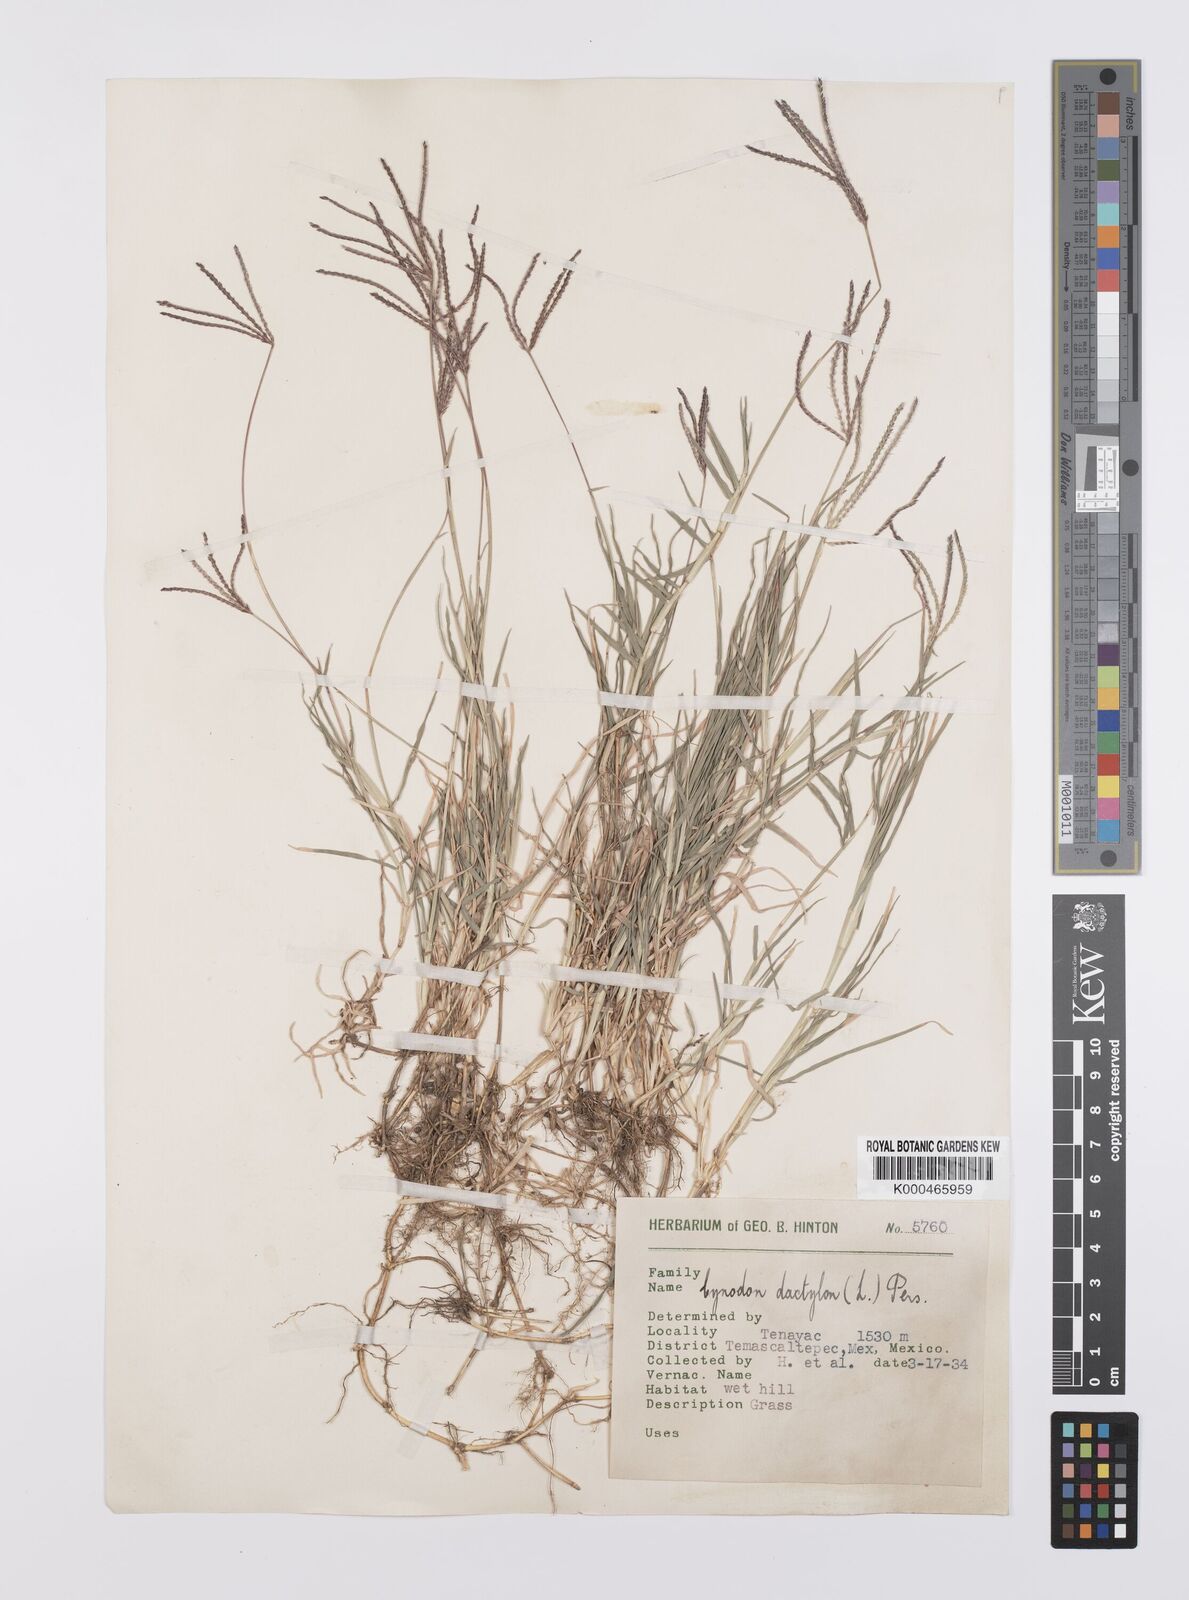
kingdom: Plantae
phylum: Tracheophyta
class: Liliopsida
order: Poales
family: Poaceae
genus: Cynodon
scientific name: Cynodon dactylon
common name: Bermuda grass
